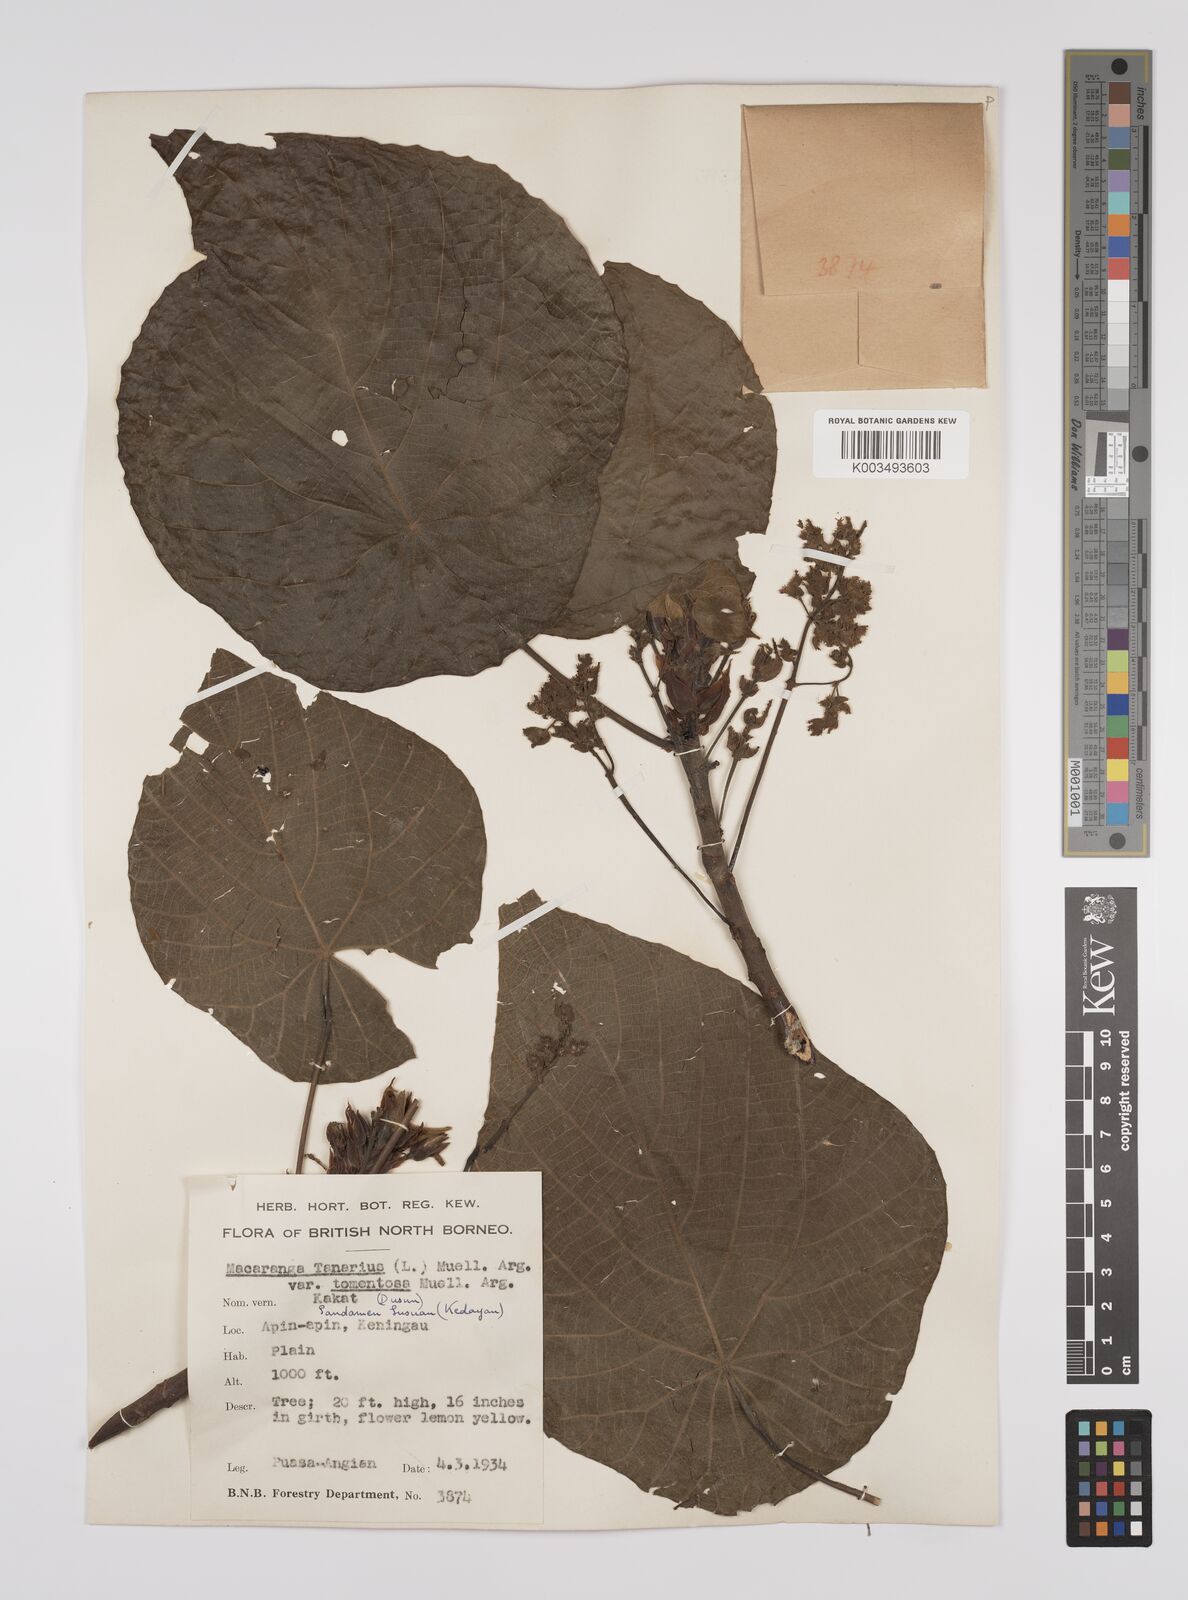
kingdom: Plantae
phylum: Tracheophyta
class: Magnoliopsida
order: Malpighiales
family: Euphorbiaceae
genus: Macaranga
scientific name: Macaranga tanarius
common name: Parasol leaf tree
